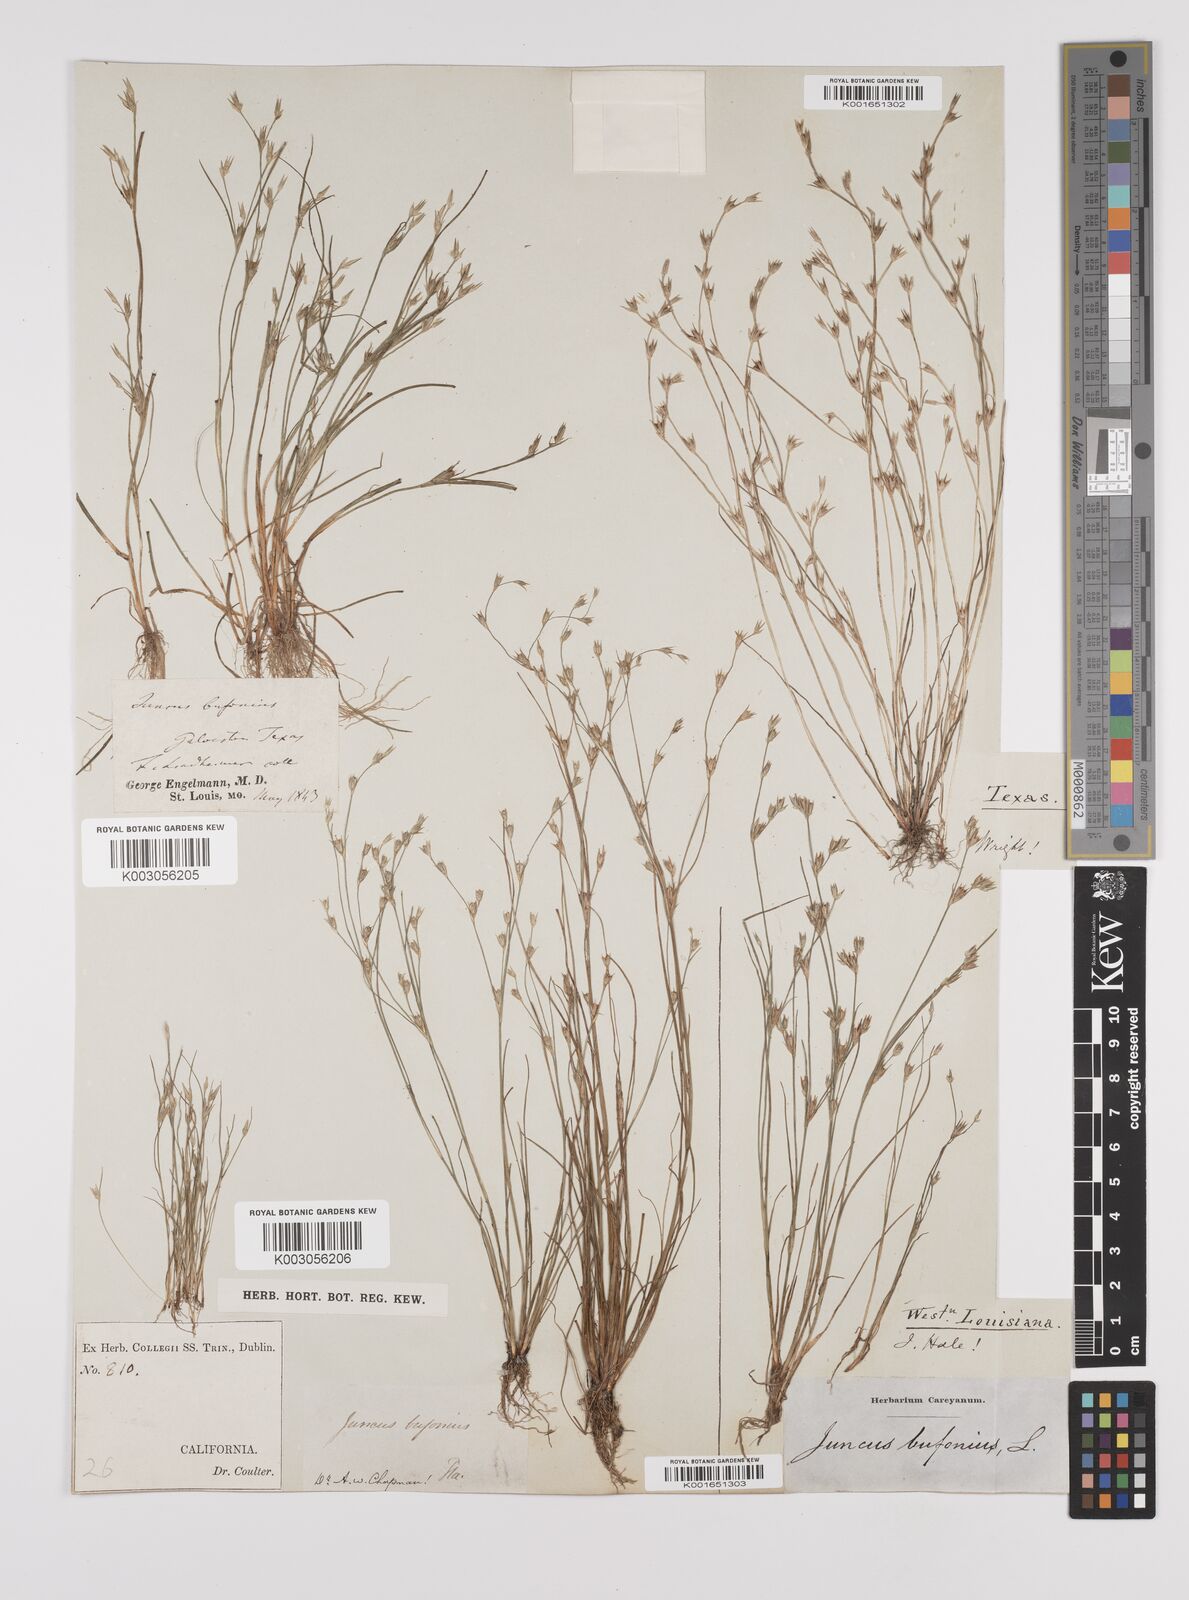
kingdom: Plantae
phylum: Tracheophyta
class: Liliopsida
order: Poales
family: Juncaceae
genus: Juncus
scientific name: Juncus bufonius
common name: Toad rush
